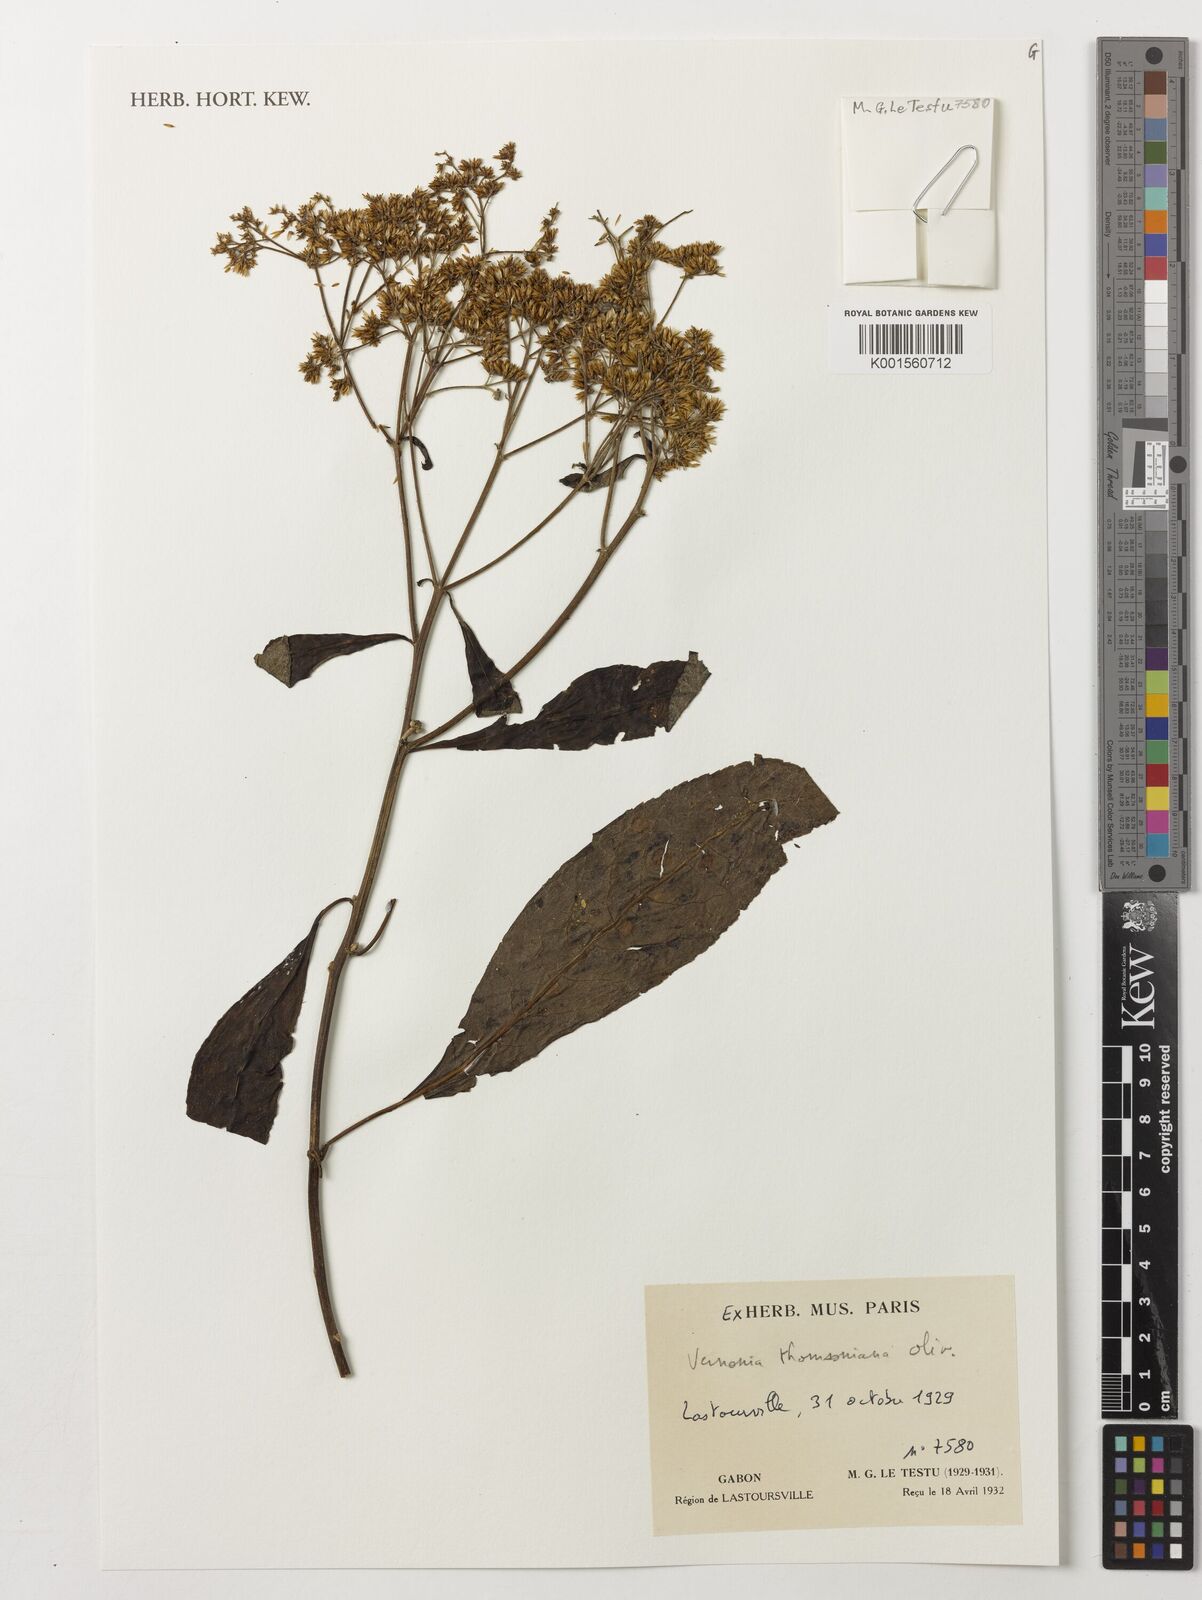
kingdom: Plantae
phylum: Tracheophyta
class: Magnoliopsida
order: Asterales
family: Asteraceae
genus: Gymnanthemum
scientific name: Gymnanthemum thomsonianum
